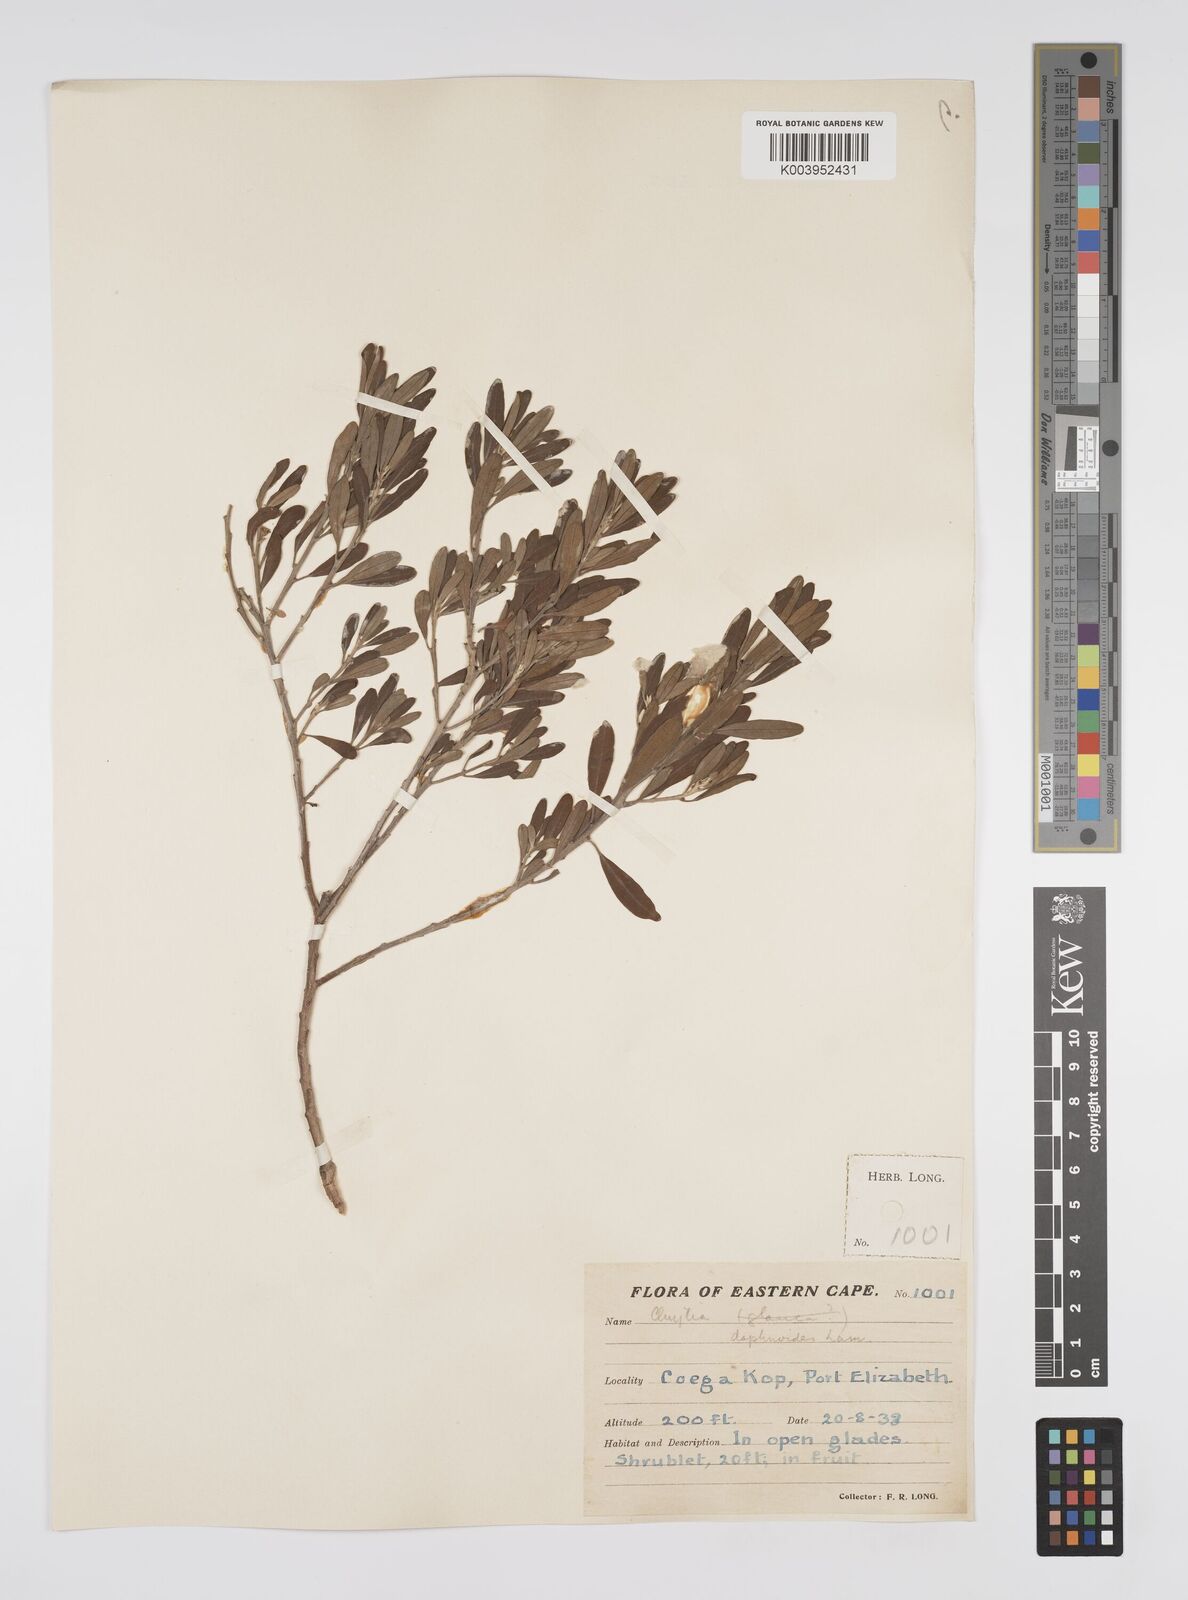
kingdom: Plantae
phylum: Tracheophyta
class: Magnoliopsida
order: Malpighiales
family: Peraceae
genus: Clutia
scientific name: Clutia daphnoides
